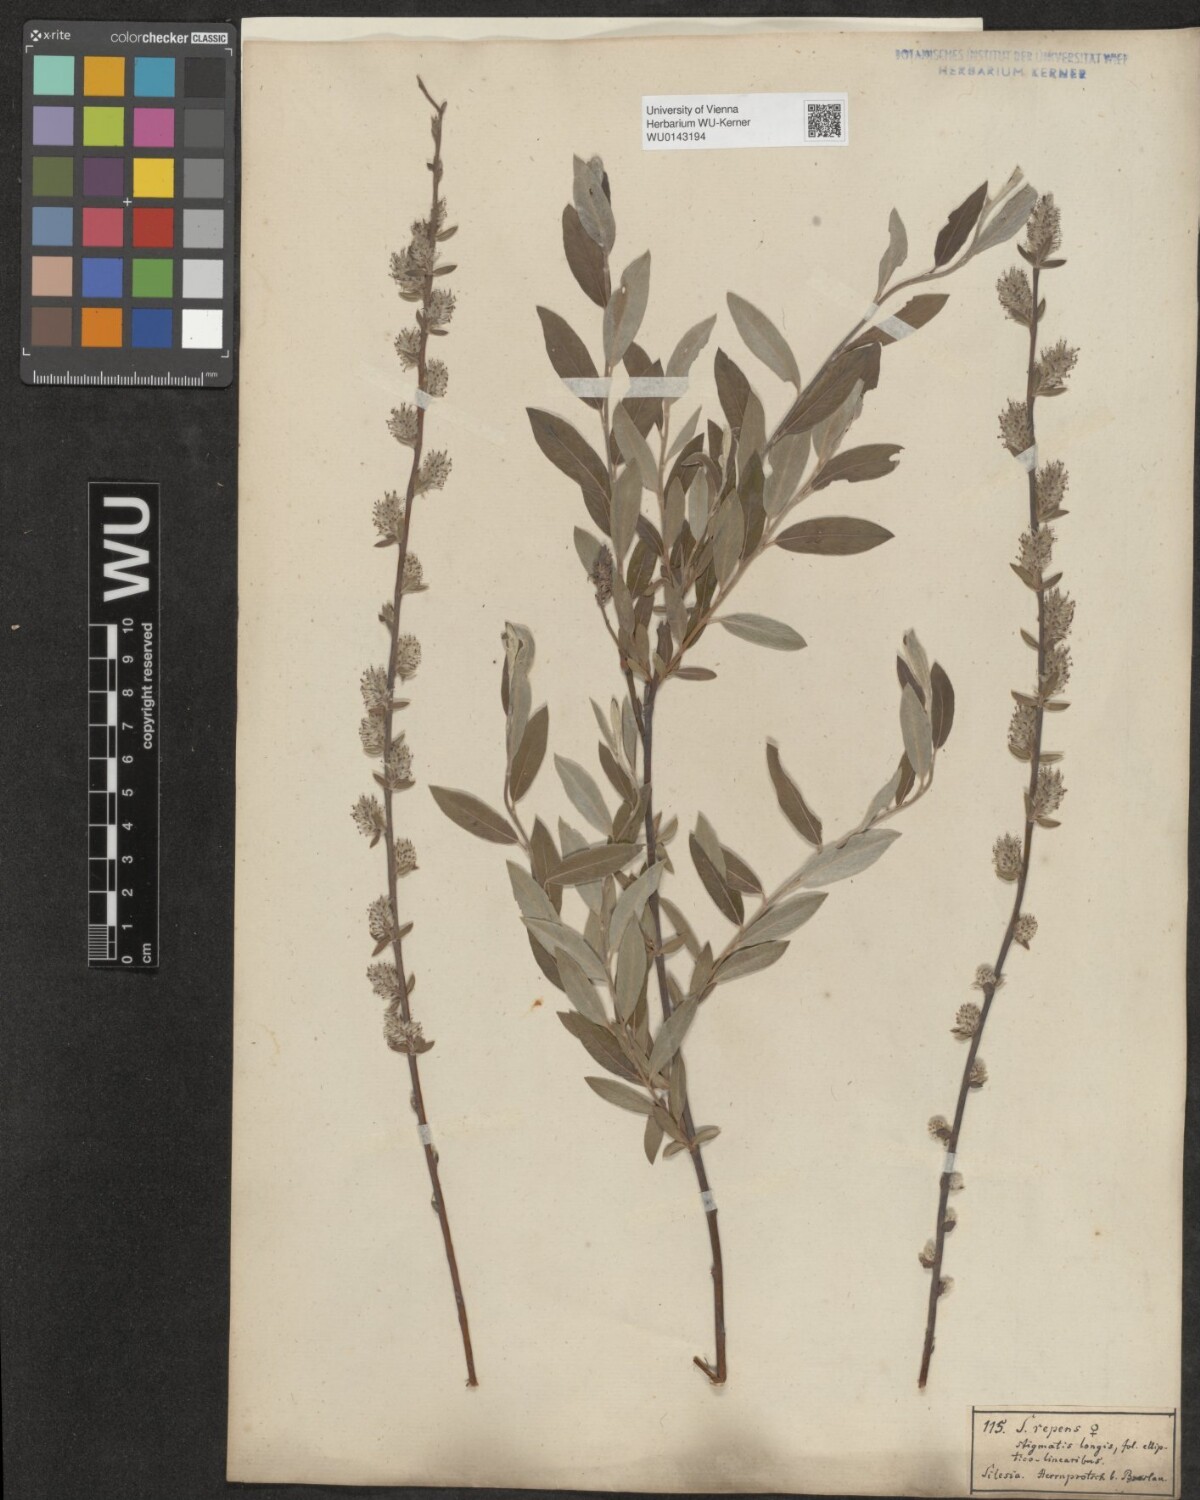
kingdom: Plantae
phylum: Tracheophyta
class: Magnoliopsida
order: Malpighiales
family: Salicaceae
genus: Salix
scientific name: Salix repens
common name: Creeping willow
